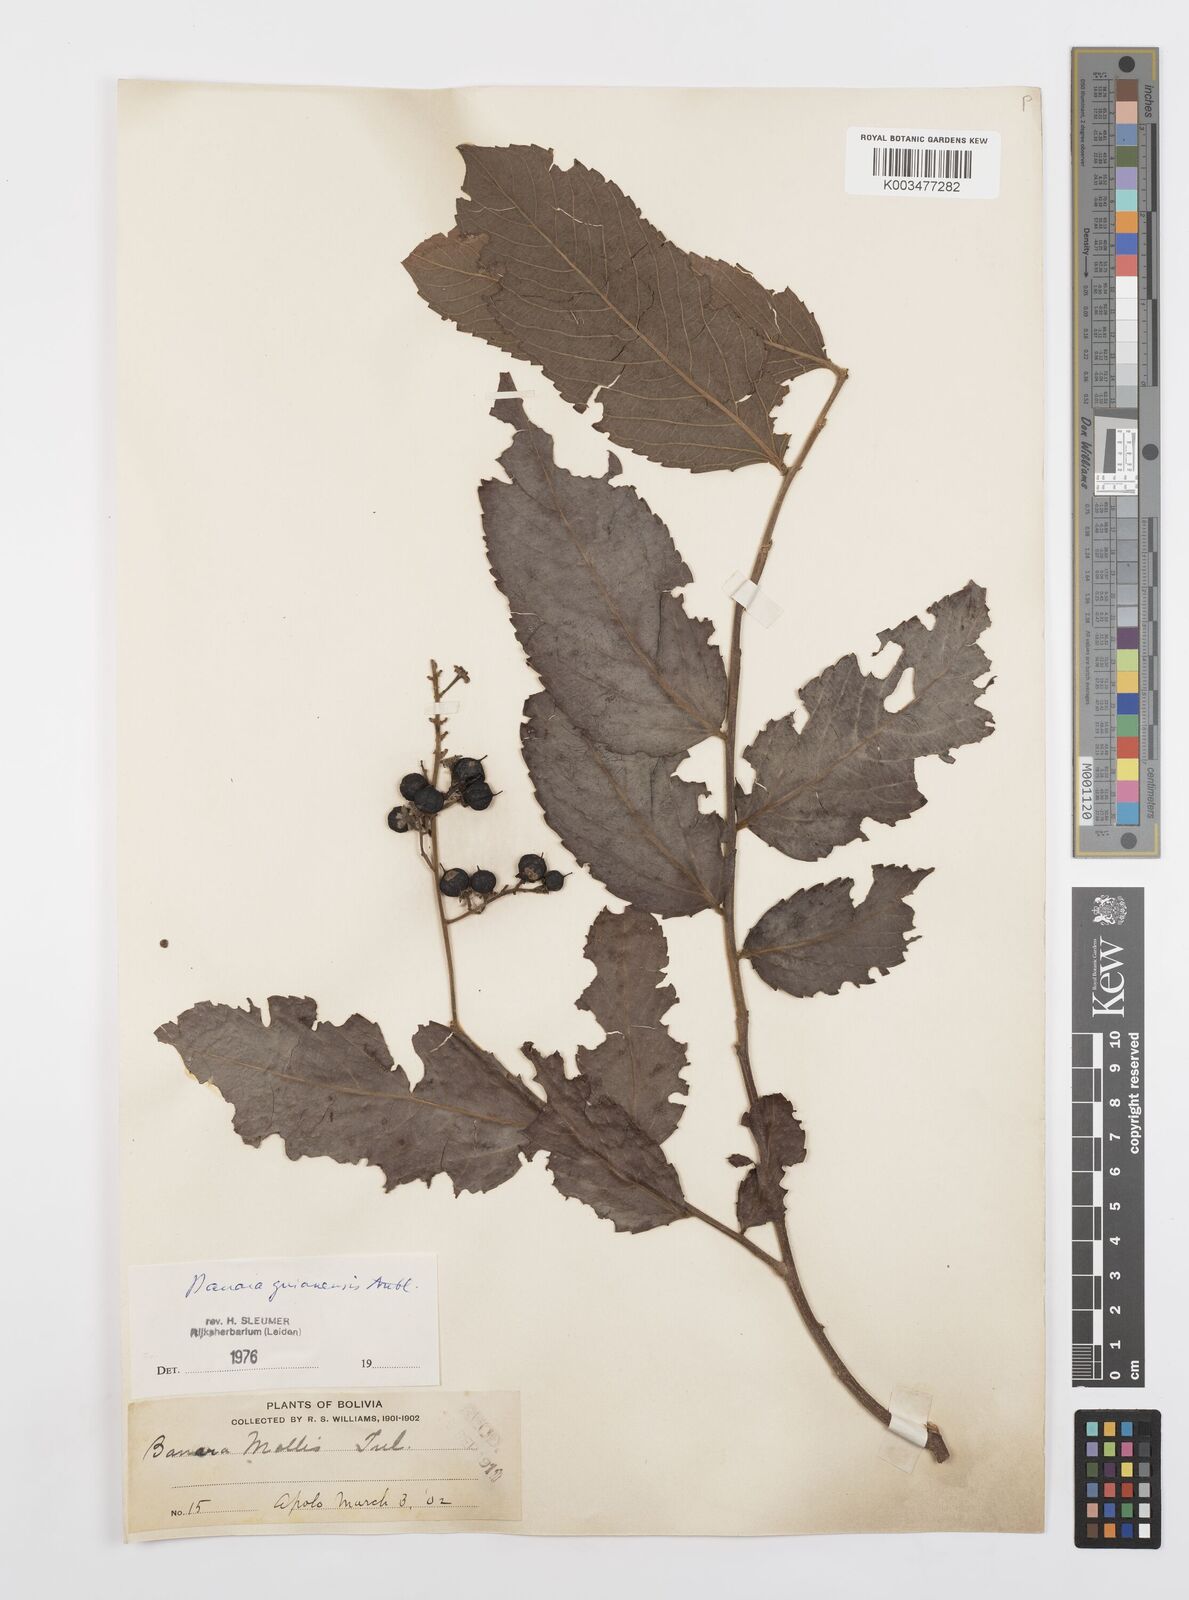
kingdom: Plantae
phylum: Tracheophyta
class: Magnoliopsida
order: Malpighiales
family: Salicaceae
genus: Banara
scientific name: Banara guianensis
